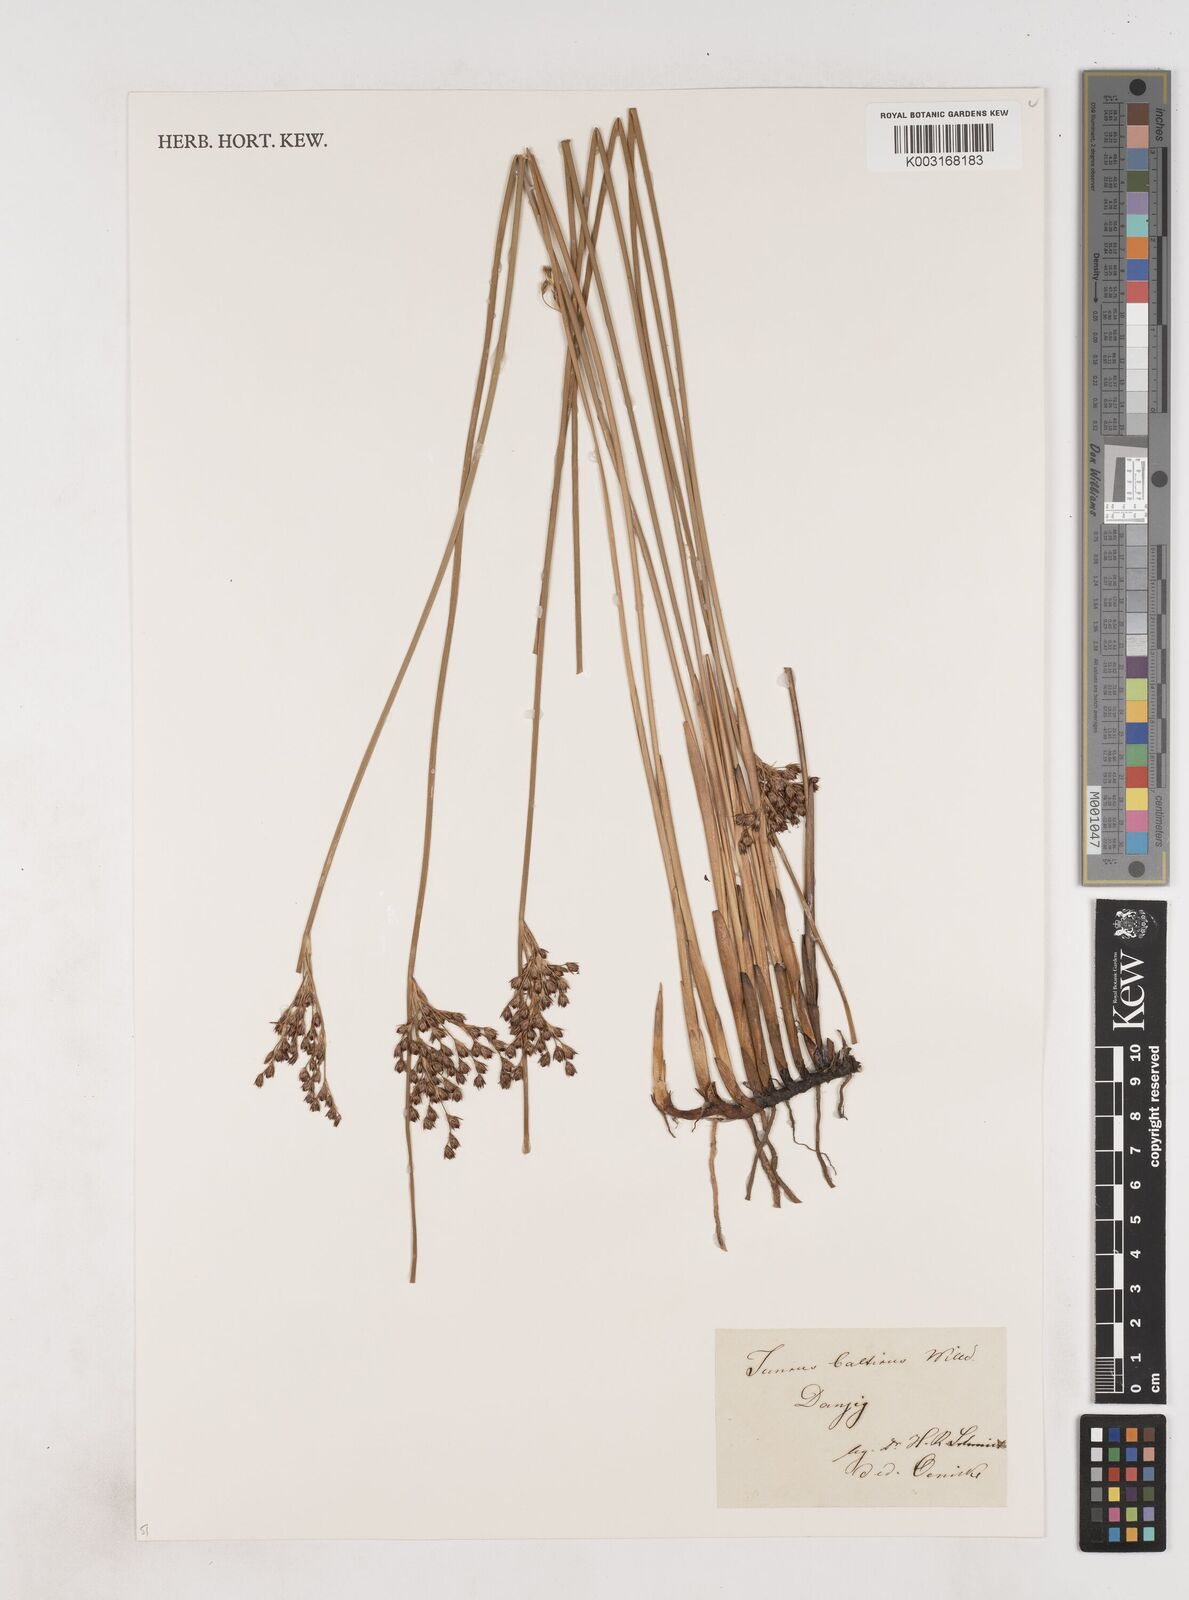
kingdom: Plantae
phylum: Tracheophyta
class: Liliopsida
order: Poales
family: Juncaceae
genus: Juncus
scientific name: Juncus balticus
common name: Baltic rush
